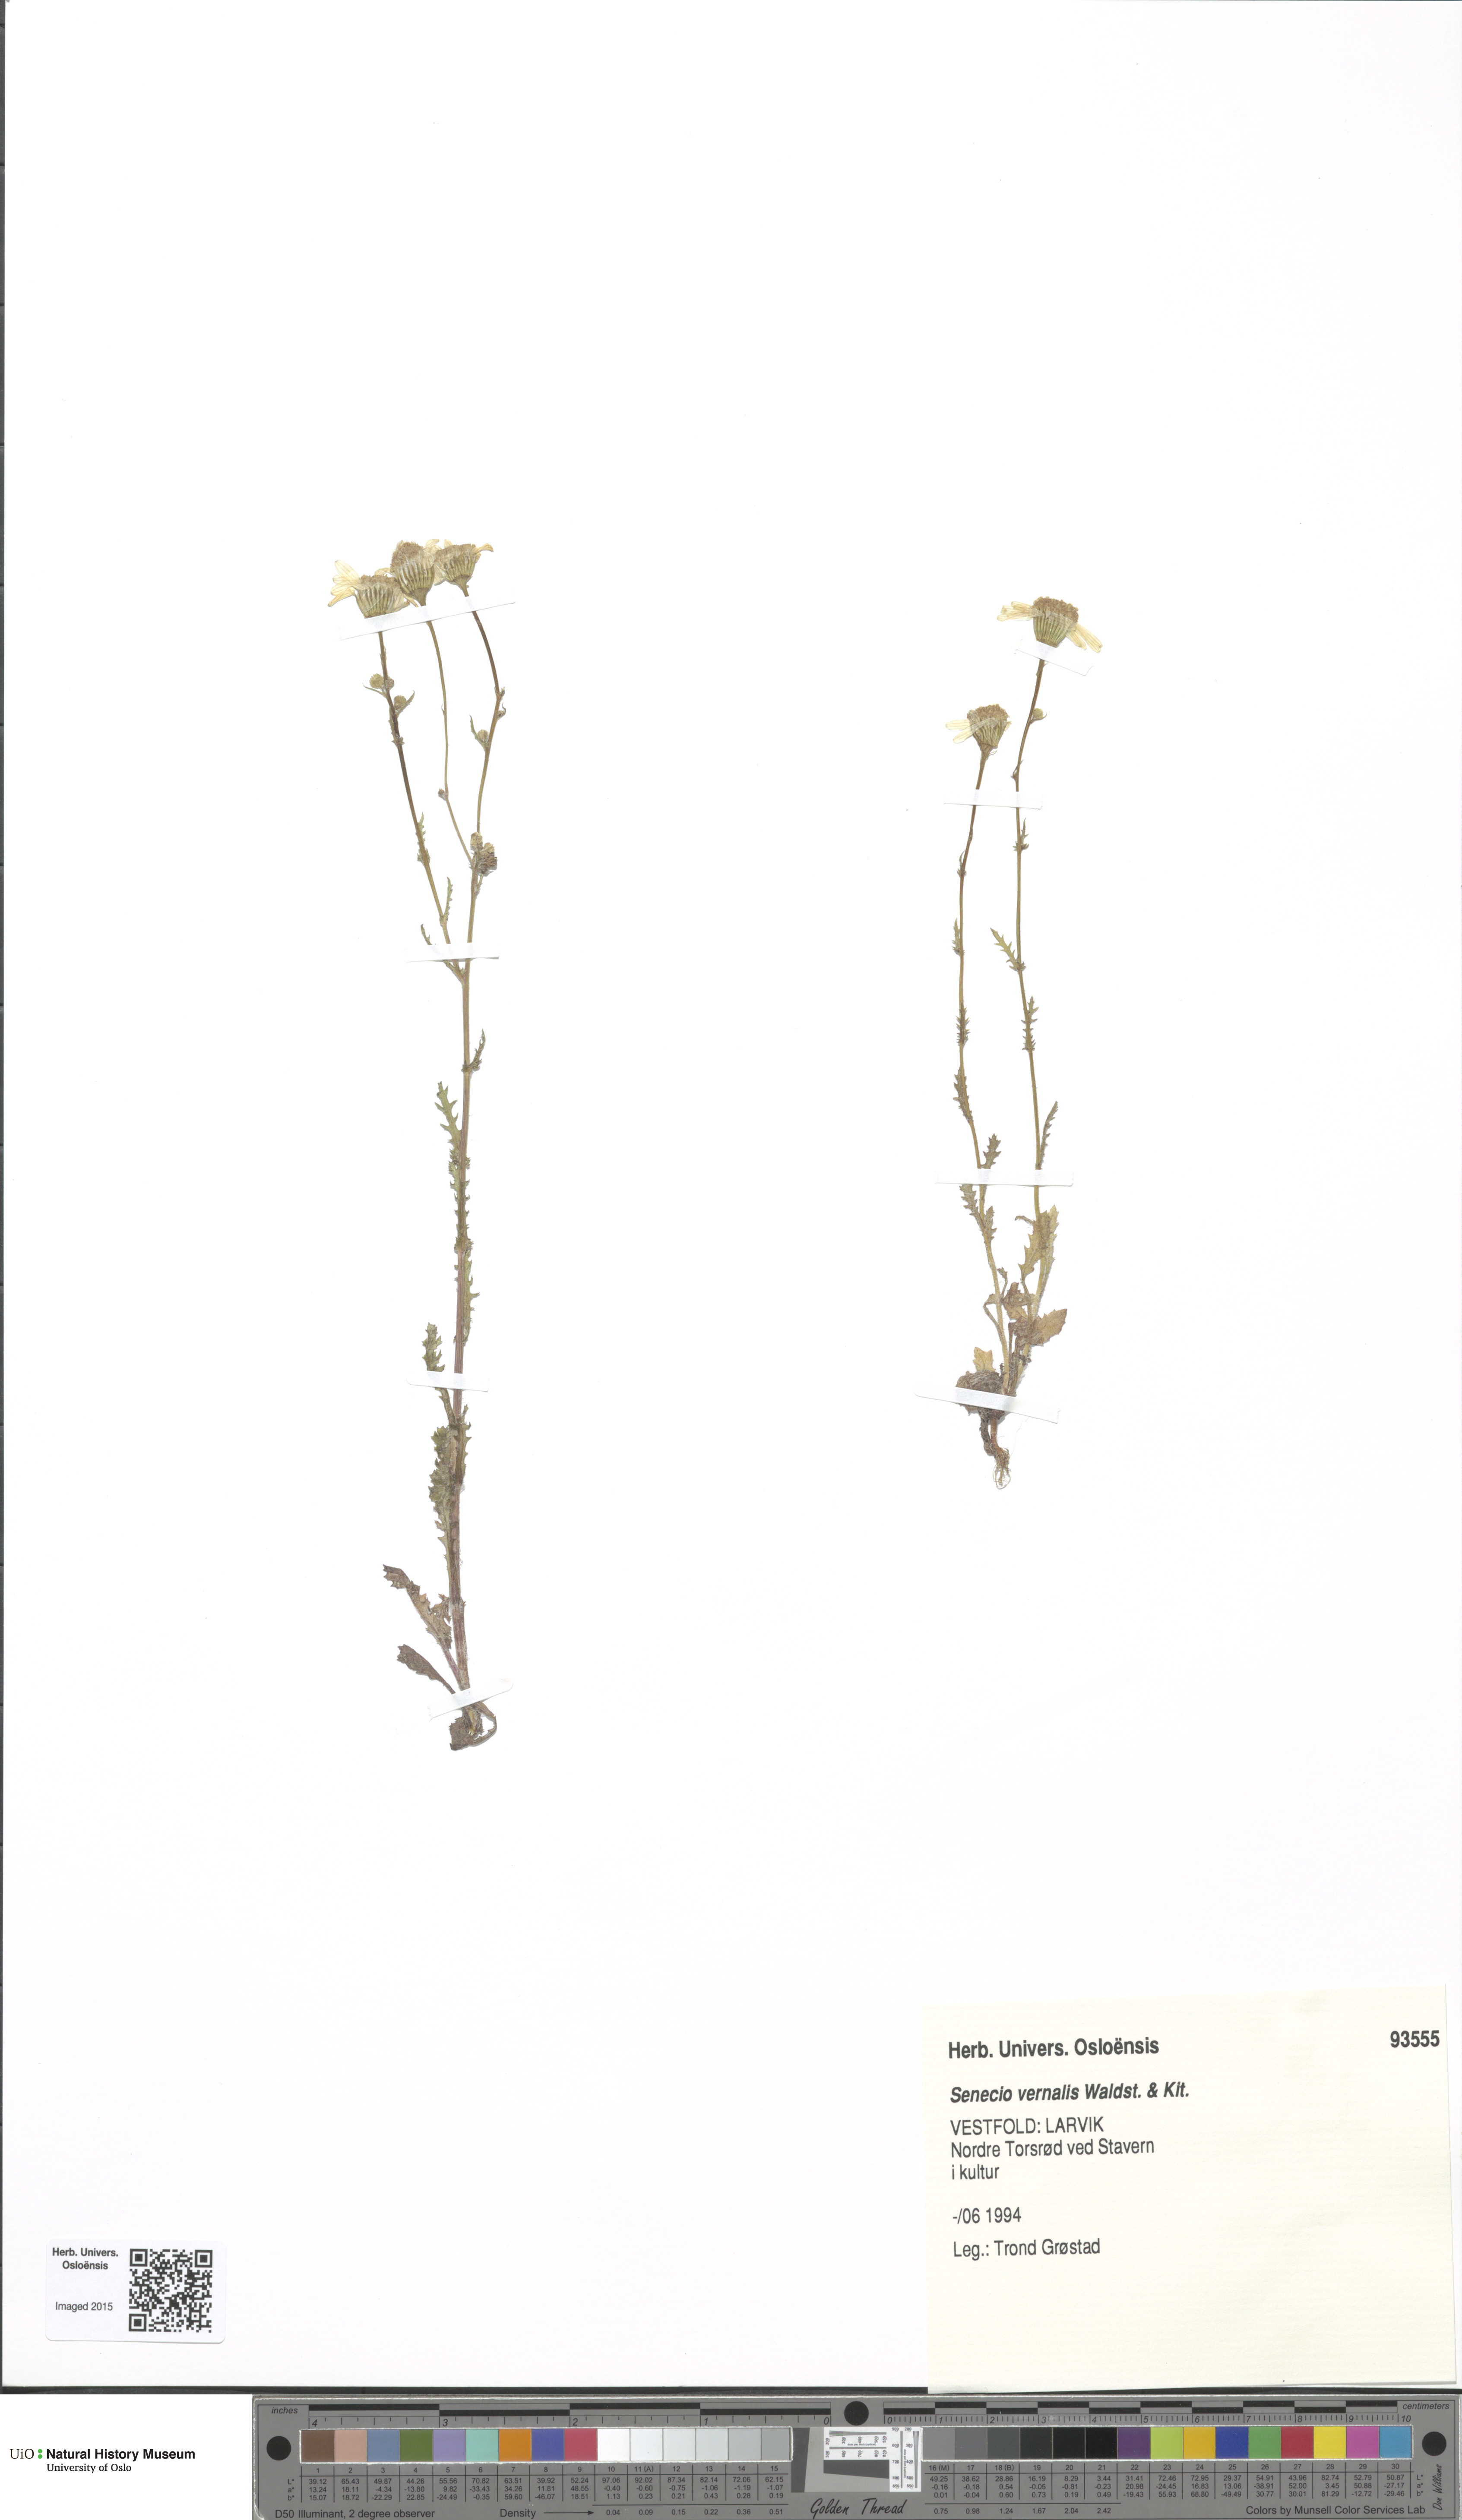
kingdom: Plantae
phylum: Tracheophyta
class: Magnoliopsida
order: Asterales
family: Asteraceae
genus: Senecio
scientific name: Senecio vernalis
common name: Eastern groundsel
